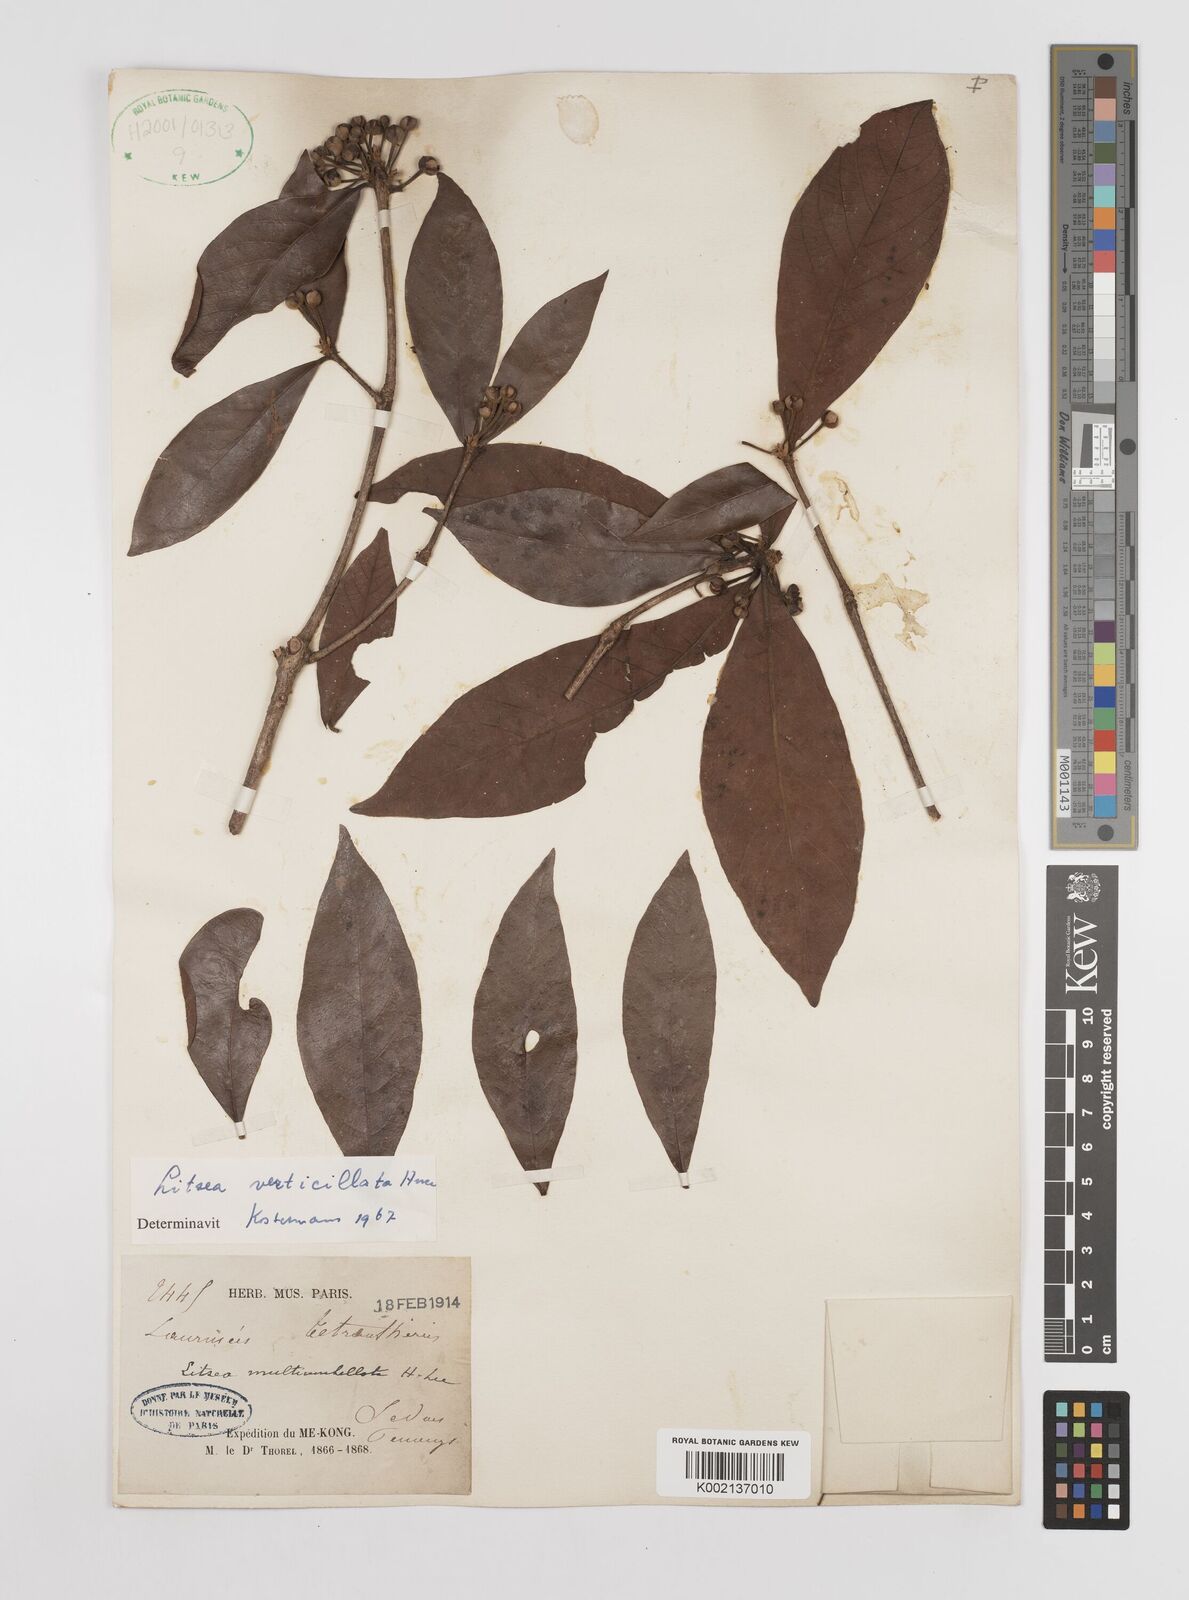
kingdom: Plantae
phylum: Tracheophyta
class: Magnoliopsida
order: Laurales
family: Lauraceae
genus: Litsea
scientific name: Litsea verticillata
